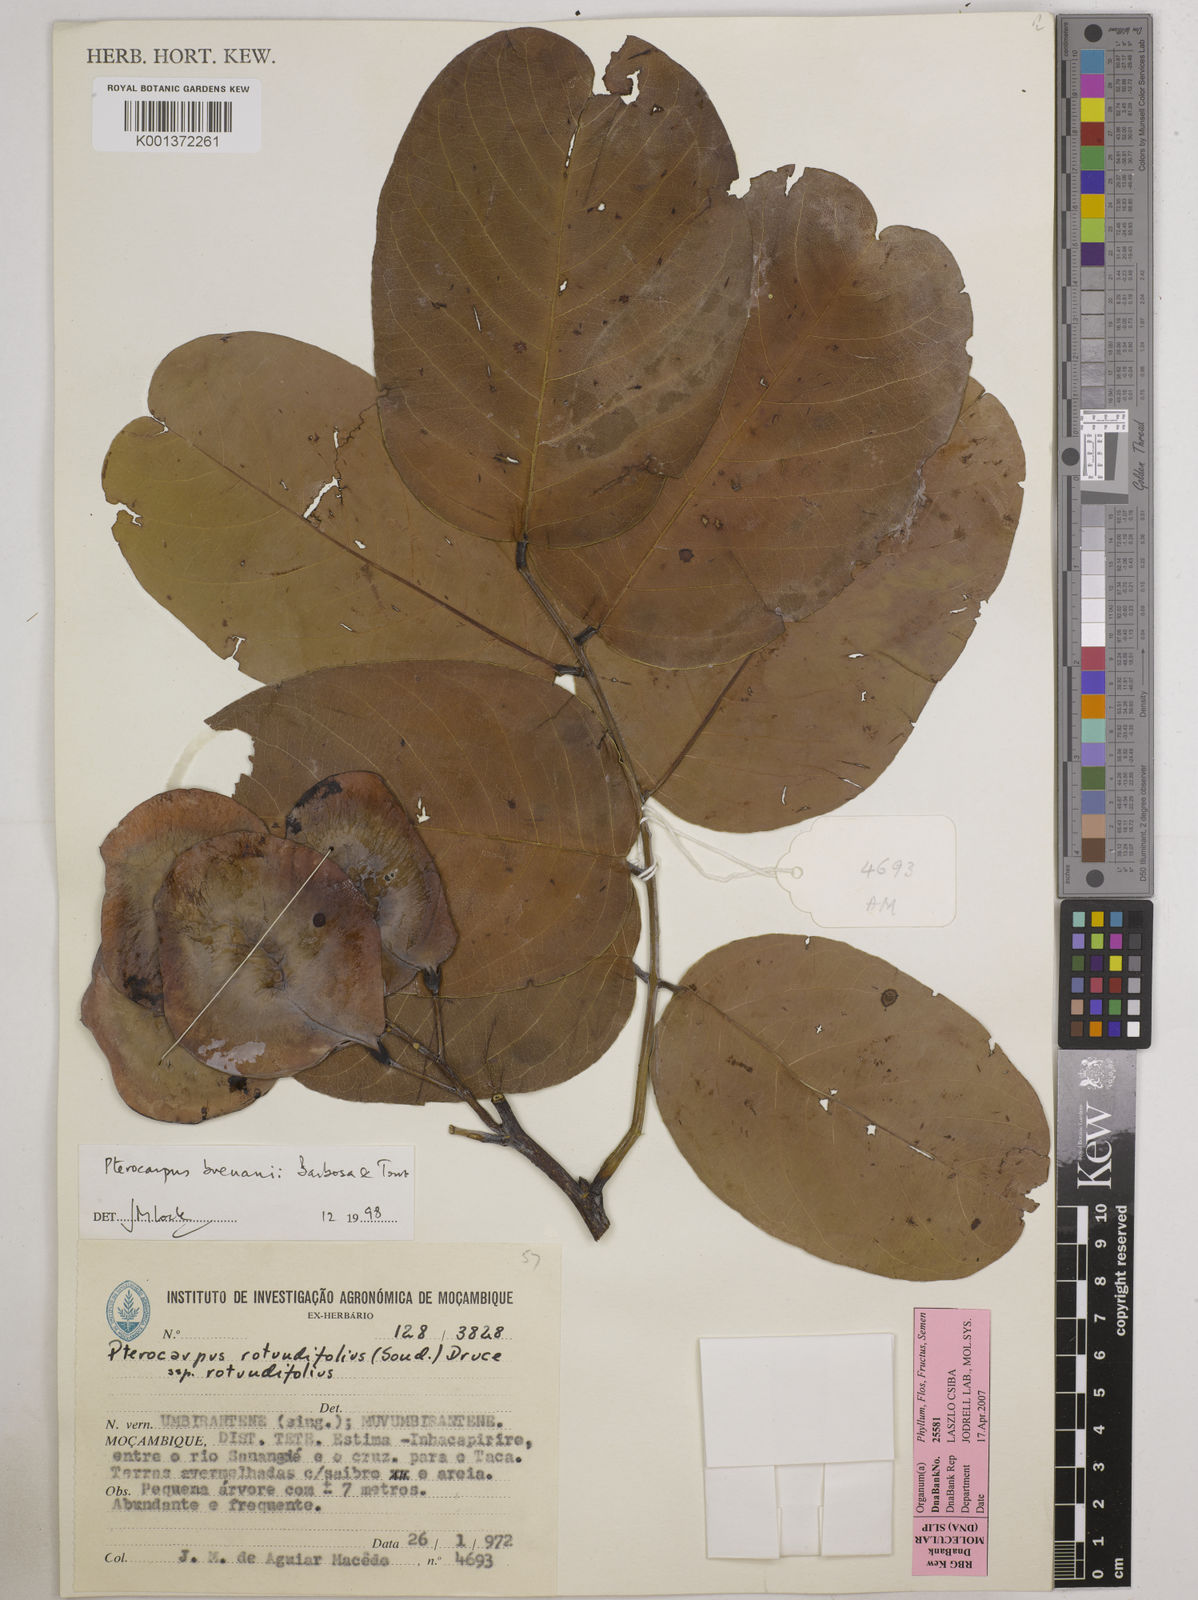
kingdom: Plantae
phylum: Tracheophyta
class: Magnoliopsida
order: Fabales
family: Fabaceae
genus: Pterocarpus
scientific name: Pterocarpus brenanii
